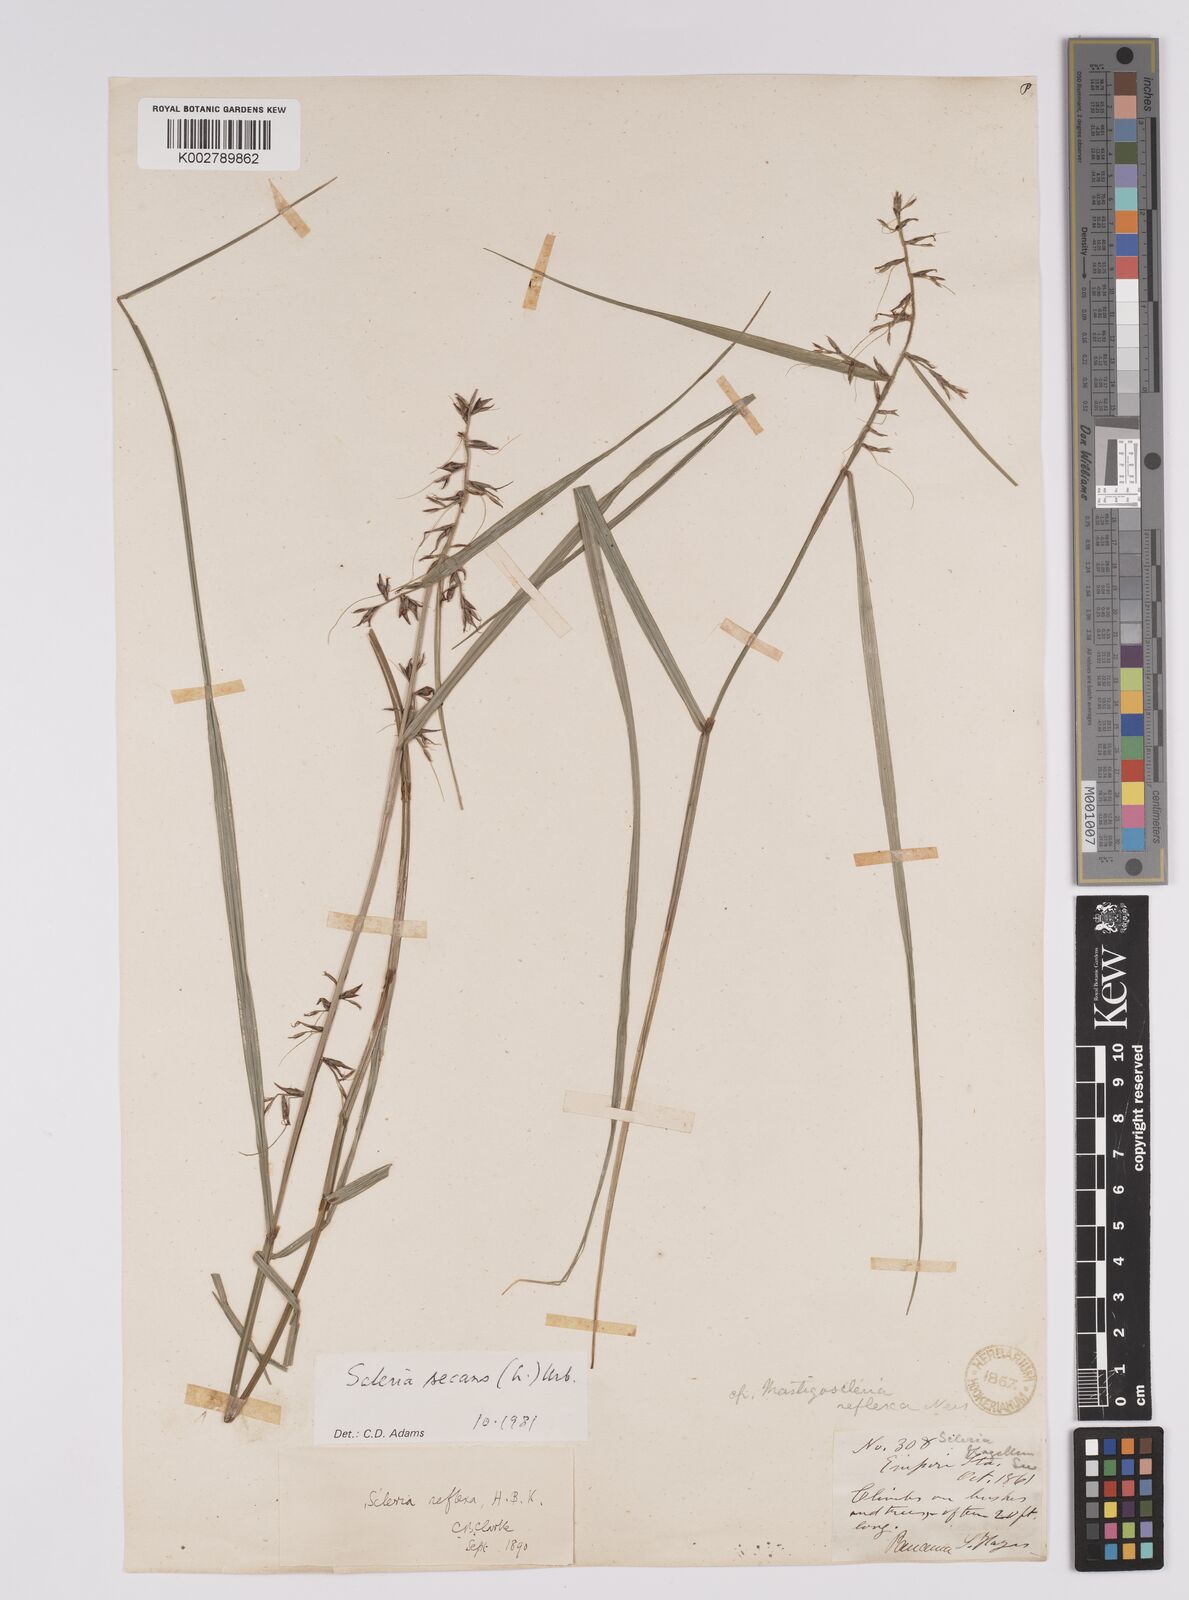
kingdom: Plantae
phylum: Tracheophyta
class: Liliopsida
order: Poales
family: Cyperaceae
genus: Scleria
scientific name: Scleria
